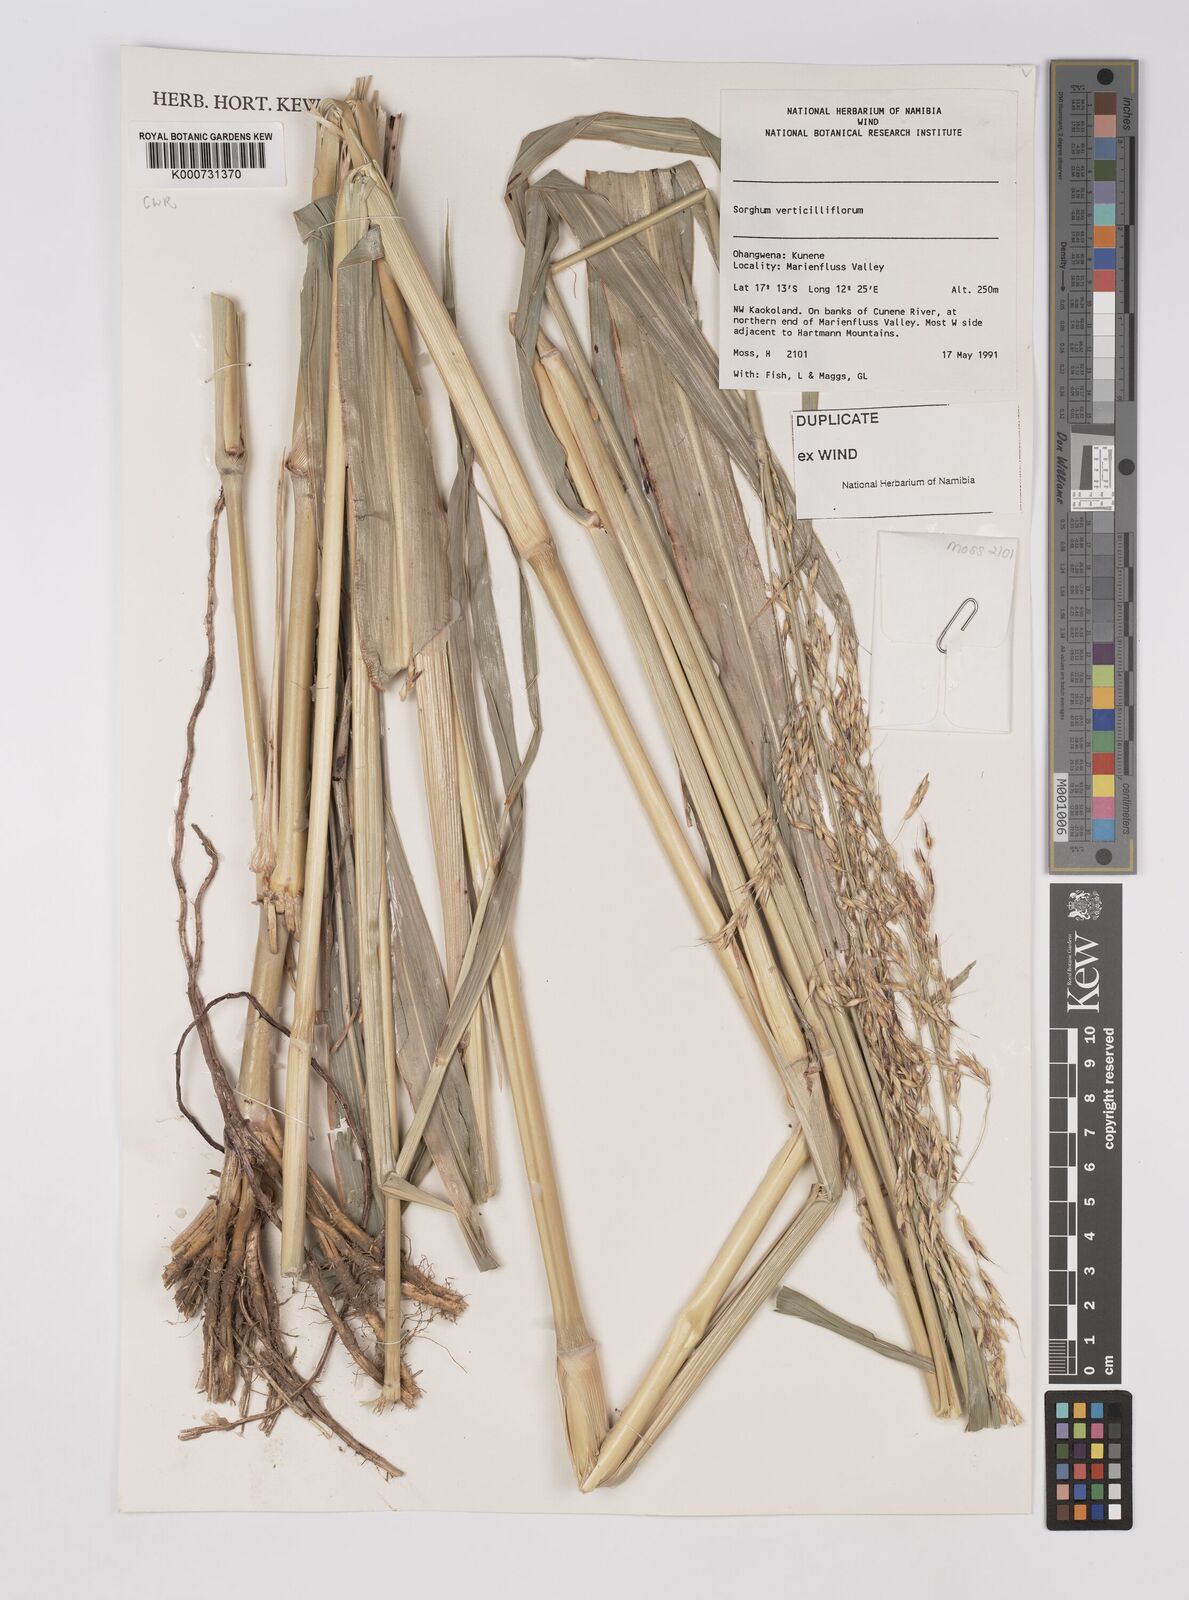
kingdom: Plantae
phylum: Tracheophyta
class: Liliopsida
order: Poales
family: Poaceae
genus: Sorghum
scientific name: Sorghum arundinaceum
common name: Sorghum
